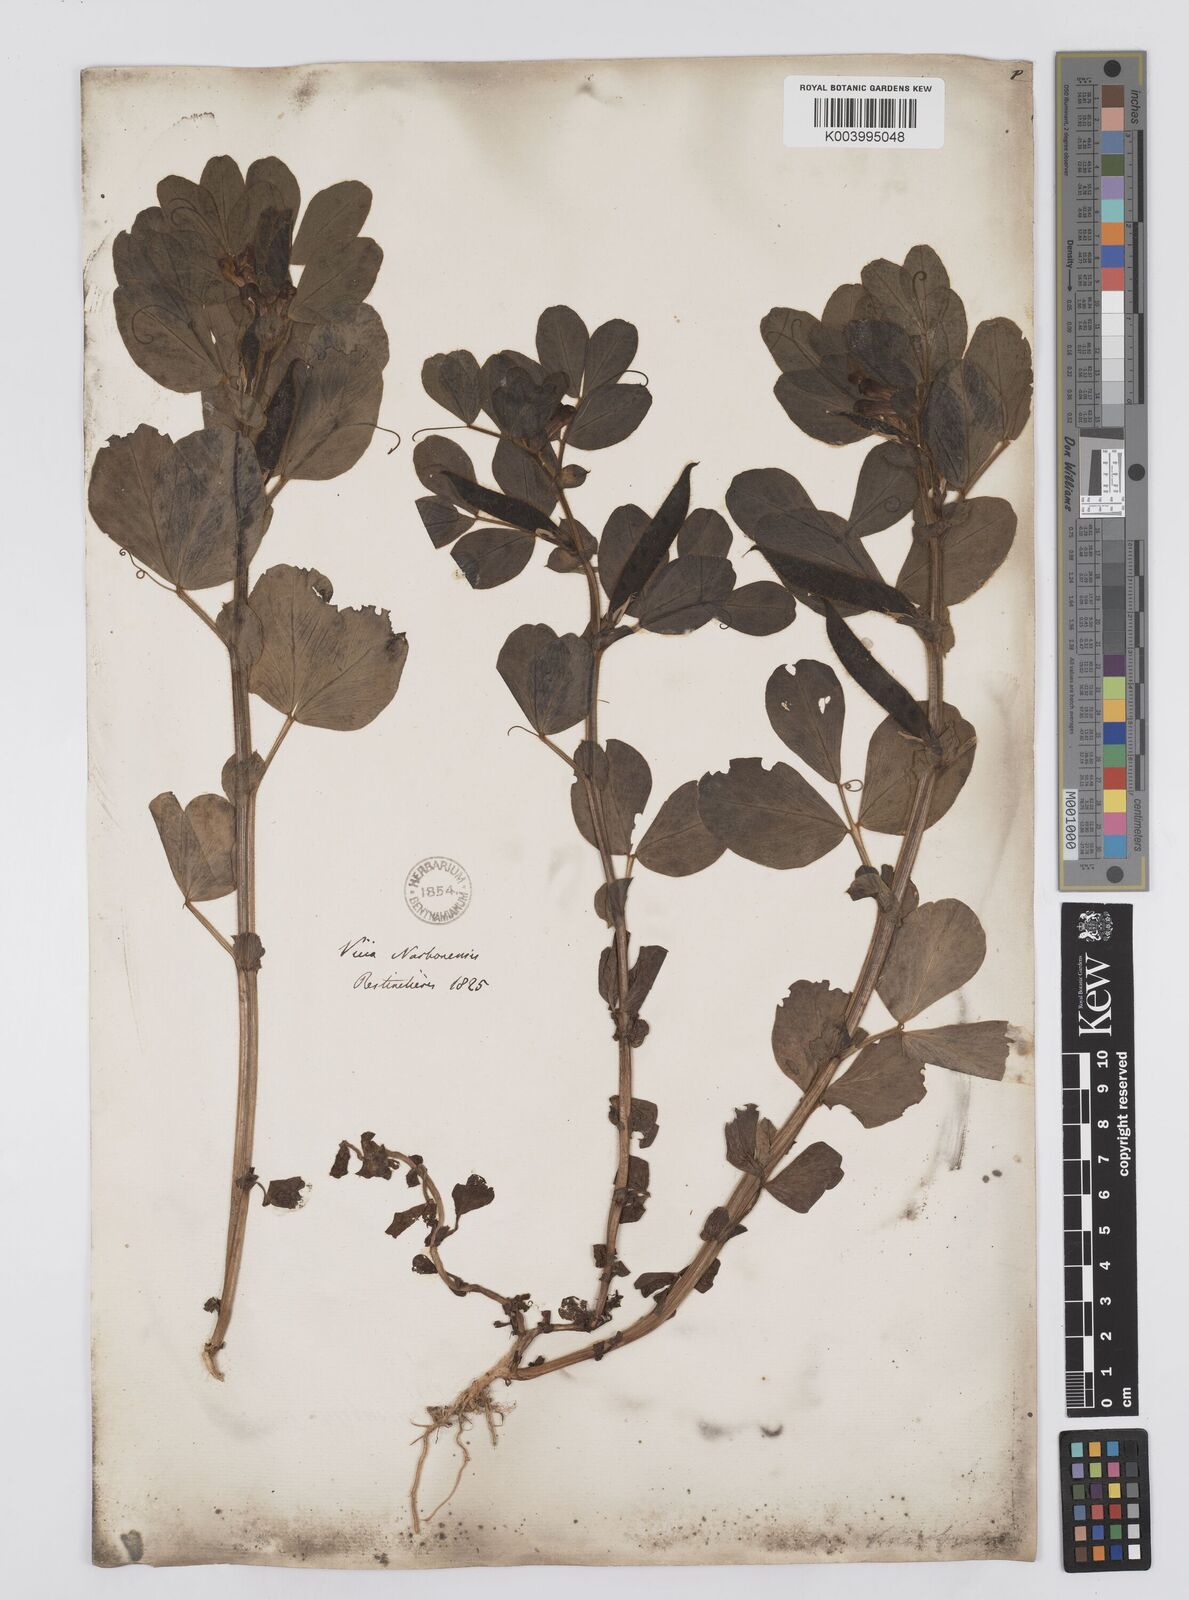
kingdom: Plantae
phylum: Tracheophyta
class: Magnoliopsida
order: Fabales
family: Fabaceae
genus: Vicia
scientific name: Vicia narbonensis
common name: Narbonne vetch
